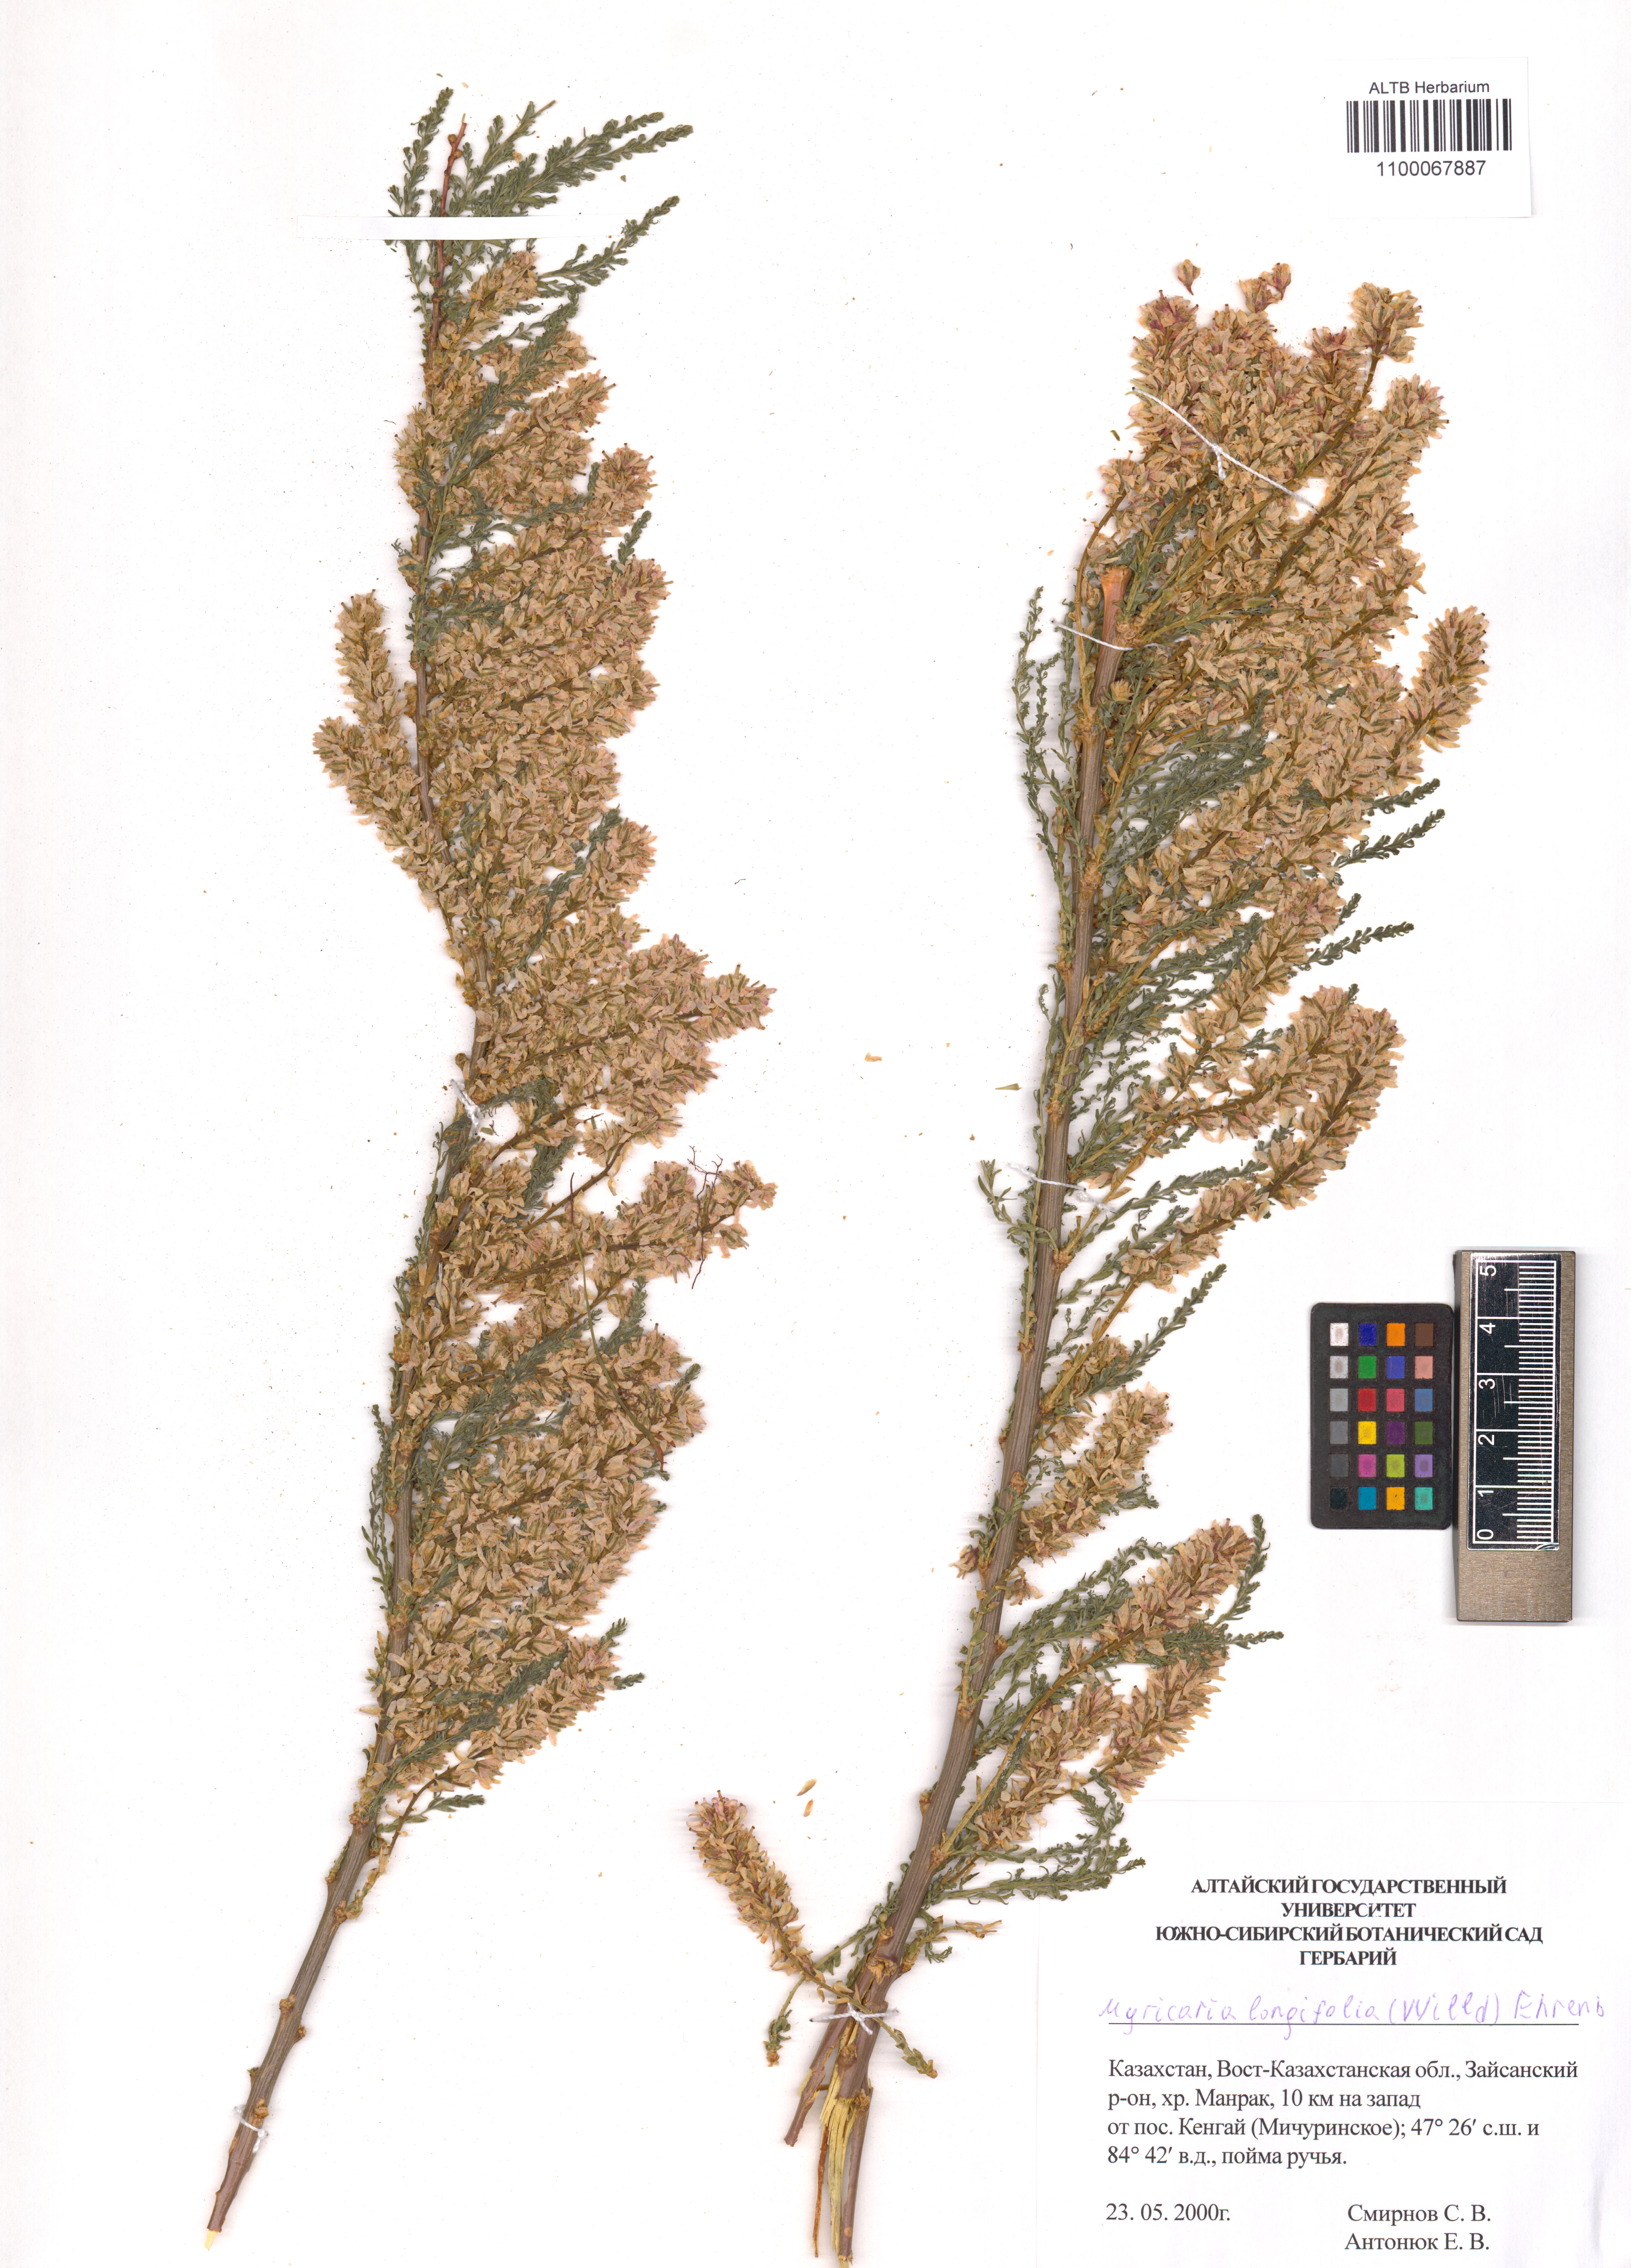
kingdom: Plantae
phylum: Tracheophyta
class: Magnoliopsida
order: Caryophyllales
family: Tamaricaceae
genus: Myricaria
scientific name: Myricaria longifolia
